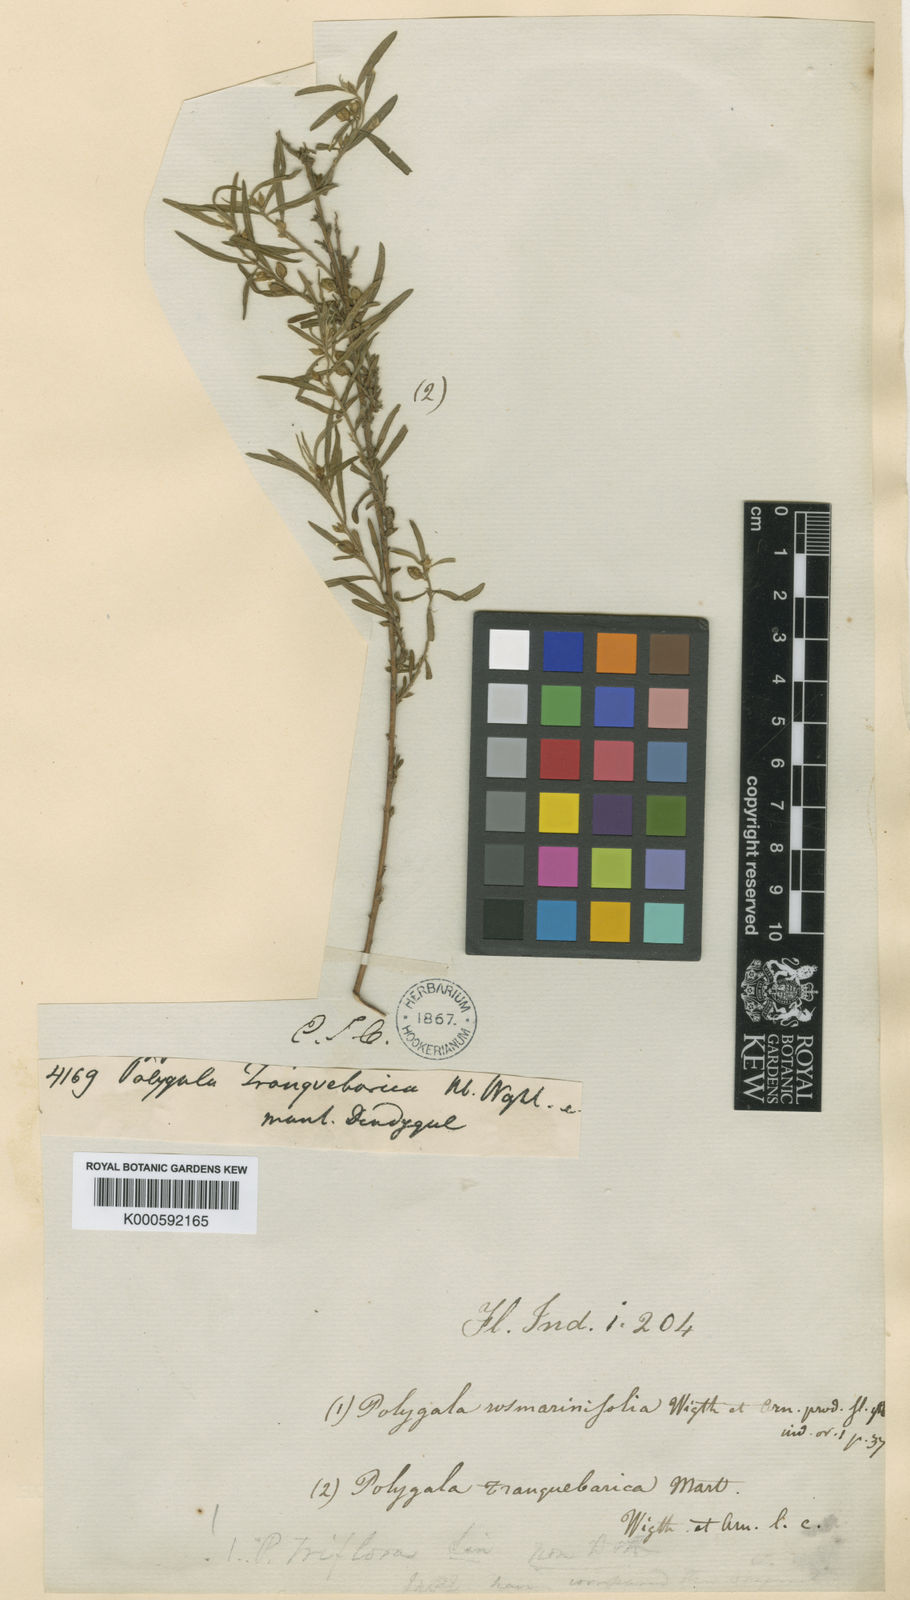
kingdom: Plantae
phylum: Tracheophyta
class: Magnoliopsida
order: Fabales
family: Polygalaceae
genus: Polygala
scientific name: Polygala rosmarinifolia
